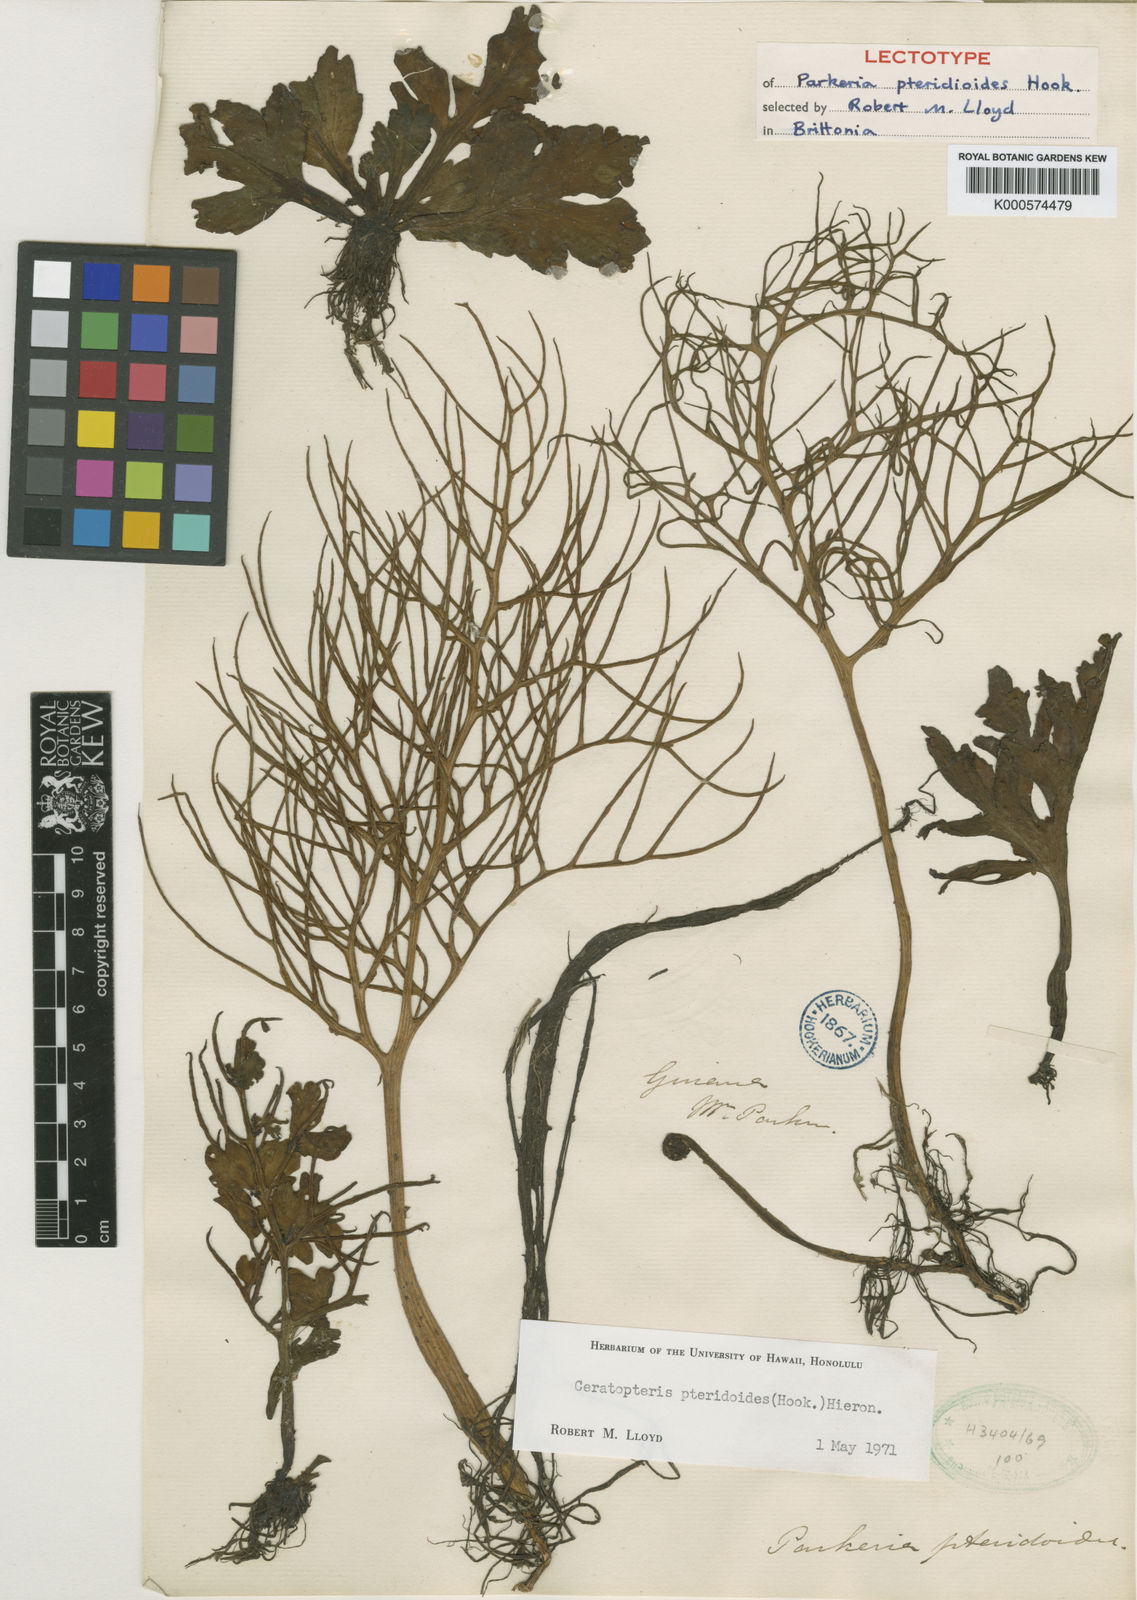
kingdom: Plantae
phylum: Tracheophyta
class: Polypodiopsida
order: Polypodiales
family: Pteridaceae
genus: Ceratopteris
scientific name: Ceratopteris pteridoides
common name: Floating fern
